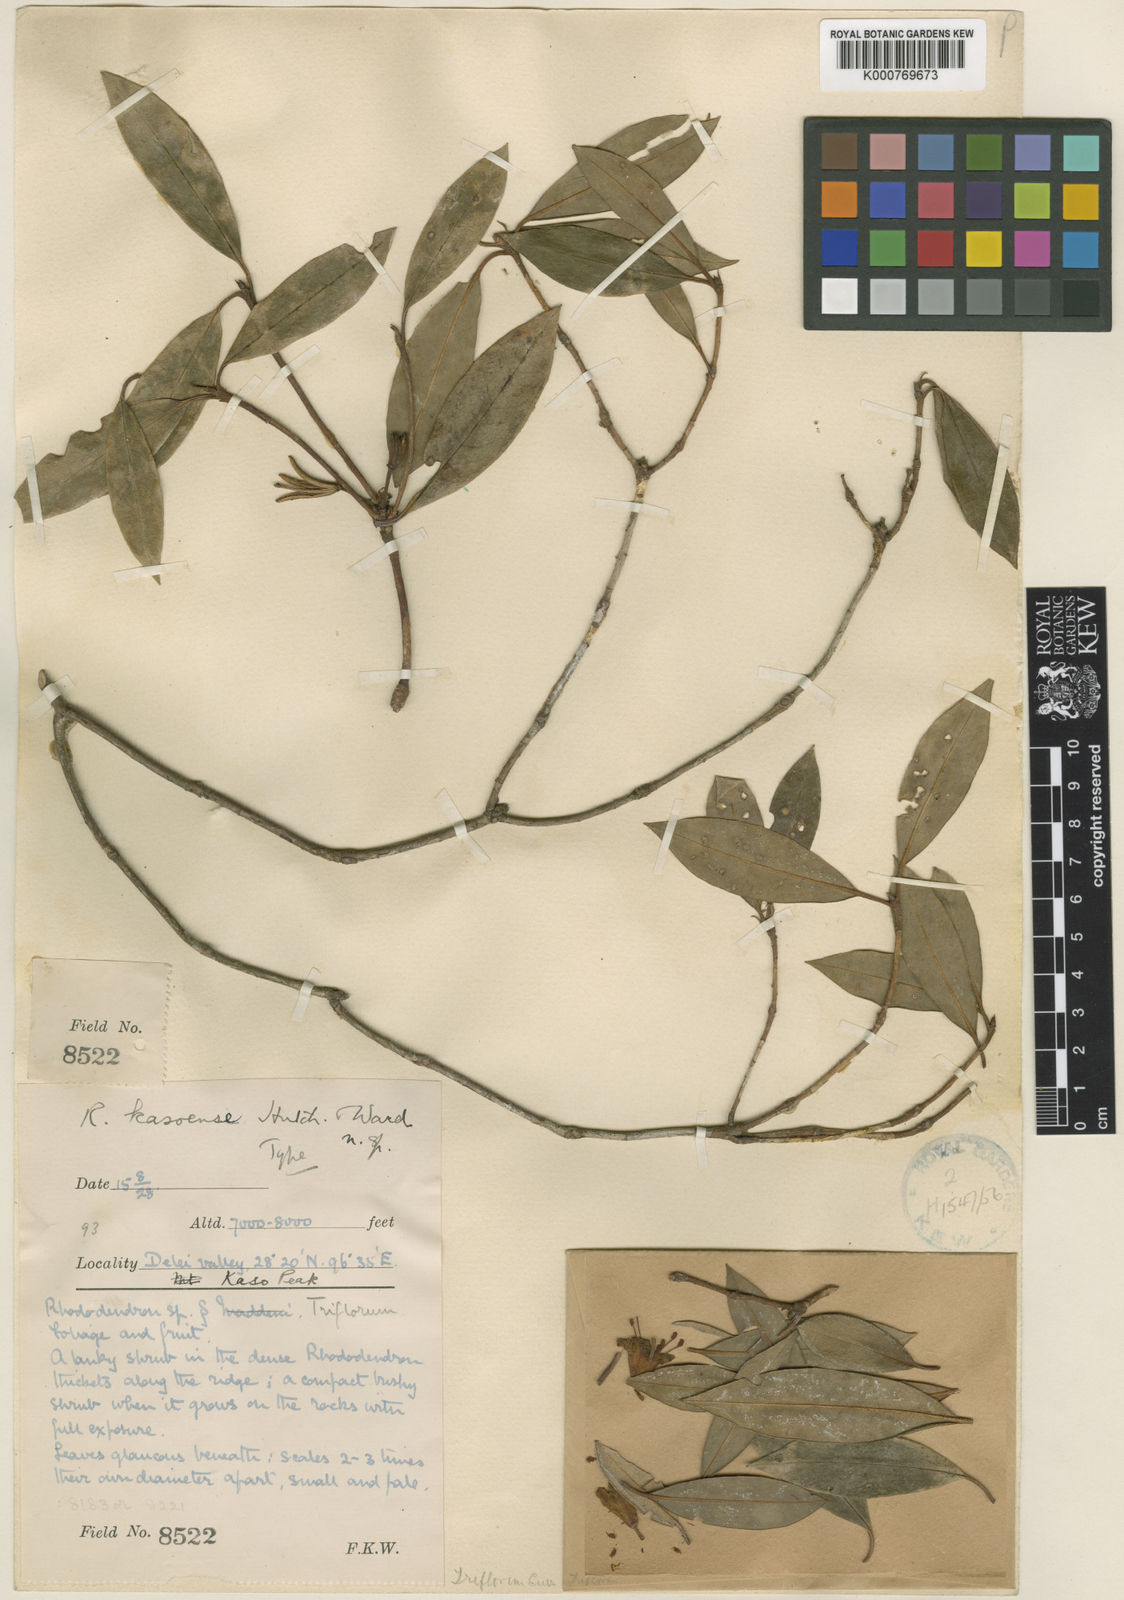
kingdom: Plantae
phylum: Tracheophyta
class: Magnoliopsida
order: Ericales
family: Ericaceae
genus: Rhododendron
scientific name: Rhododendron kasoense
